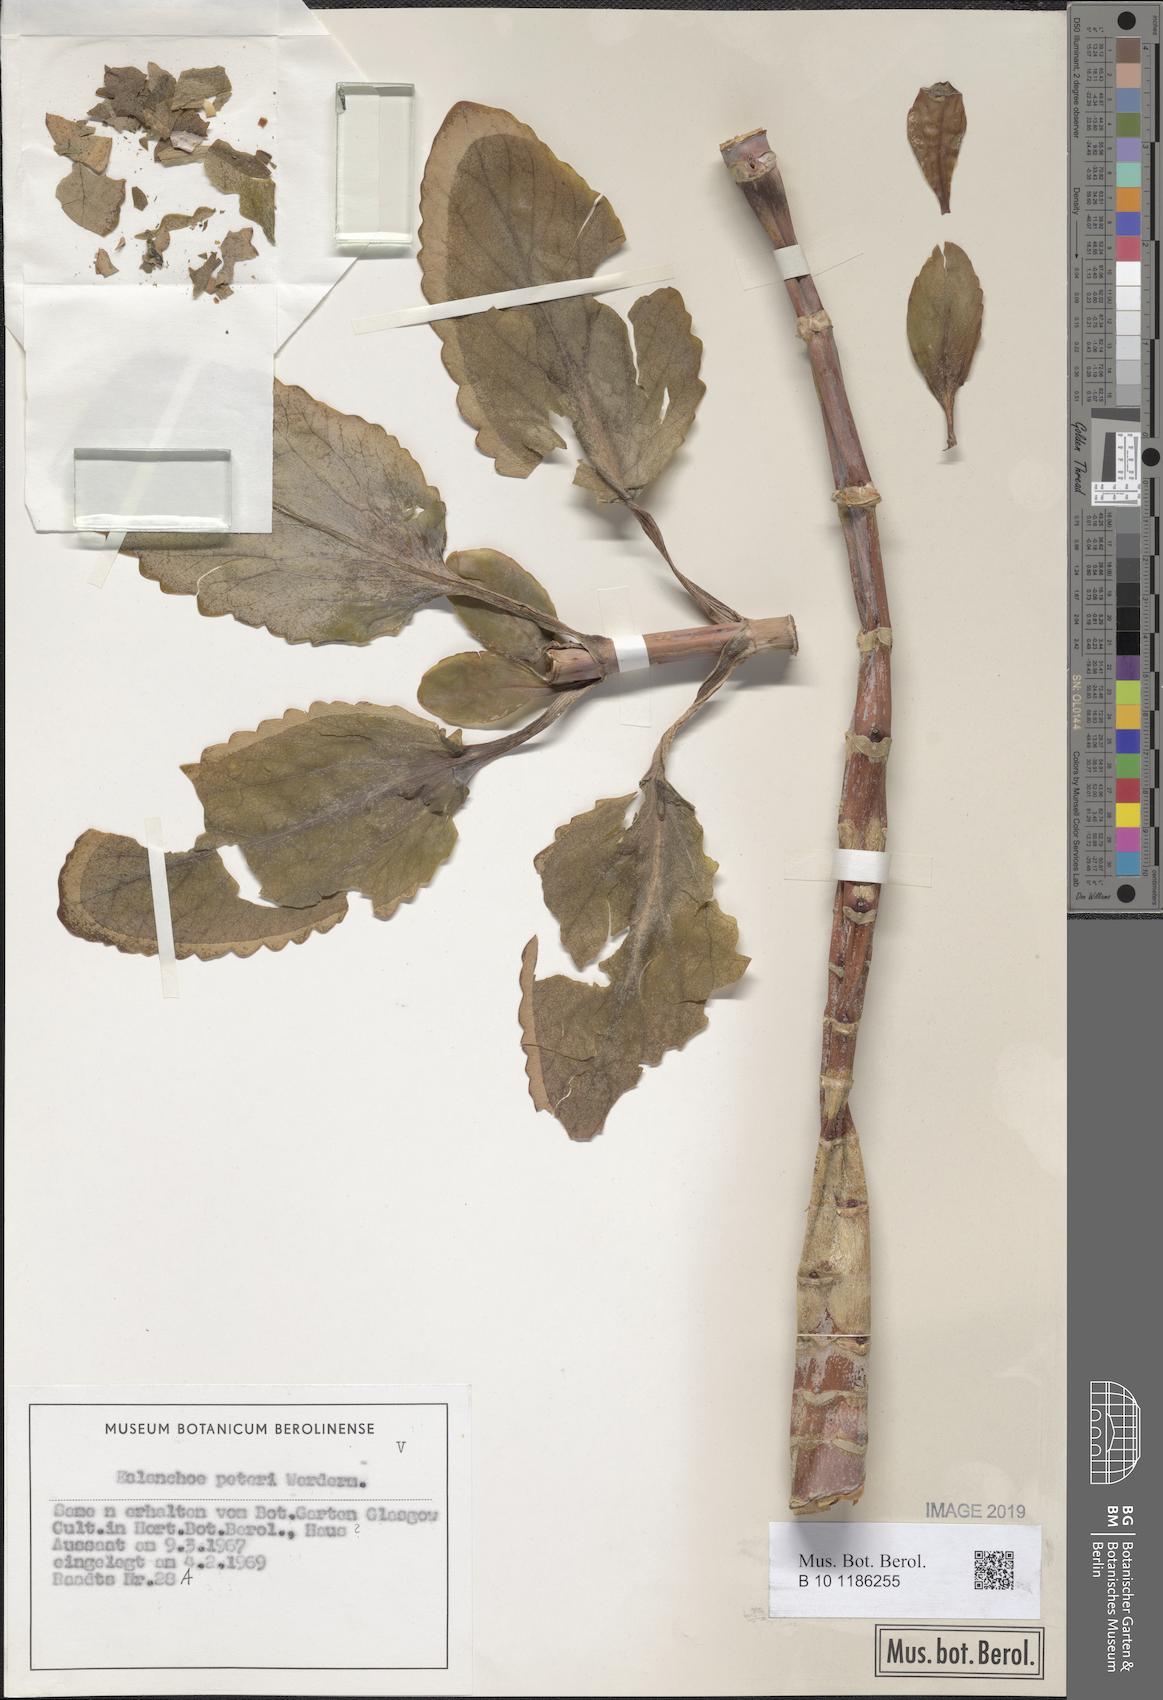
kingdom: Plantae
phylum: Tracheophyta
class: Magnoliopsida
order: Saxifragales
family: Crassulaceae
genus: Kalanchoe
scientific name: Kalanchoe peteri
